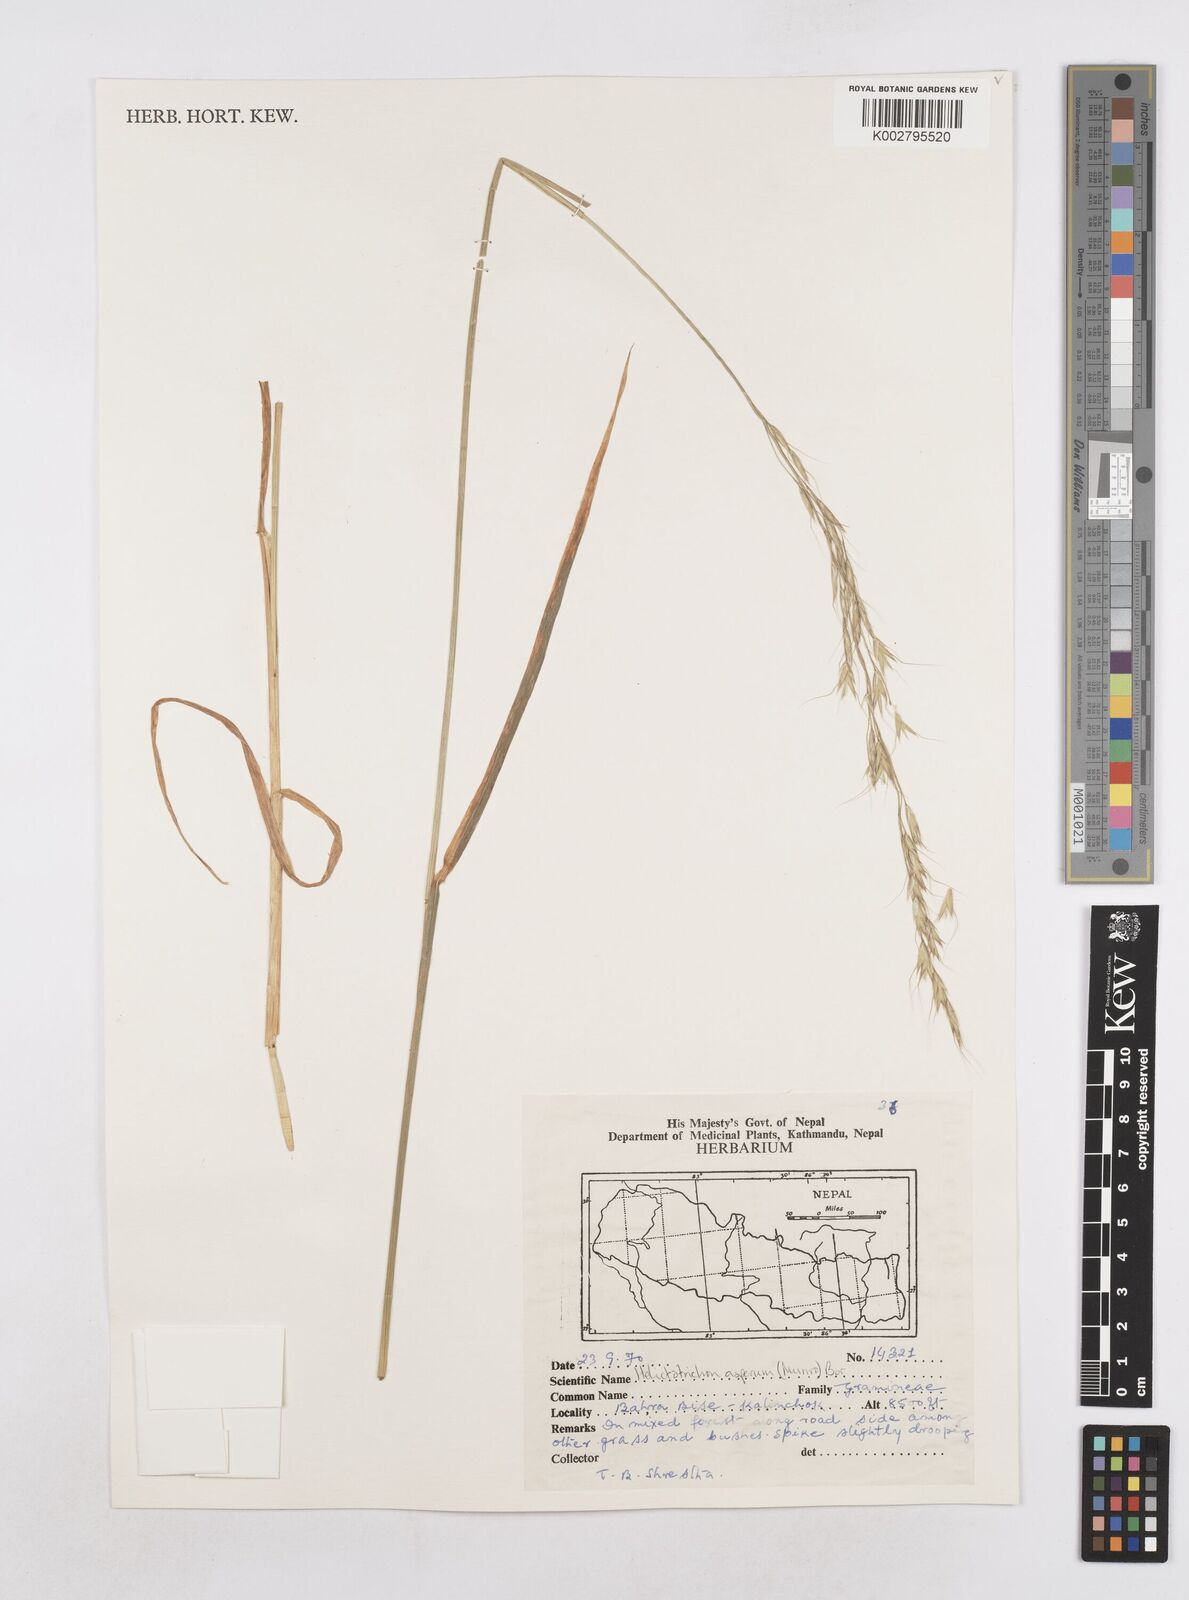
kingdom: Plantae
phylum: Tracheophyta
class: Liliopsida
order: Poales
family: Poaceae
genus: Trisetopsis
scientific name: Trisetopsis junghuhnii
